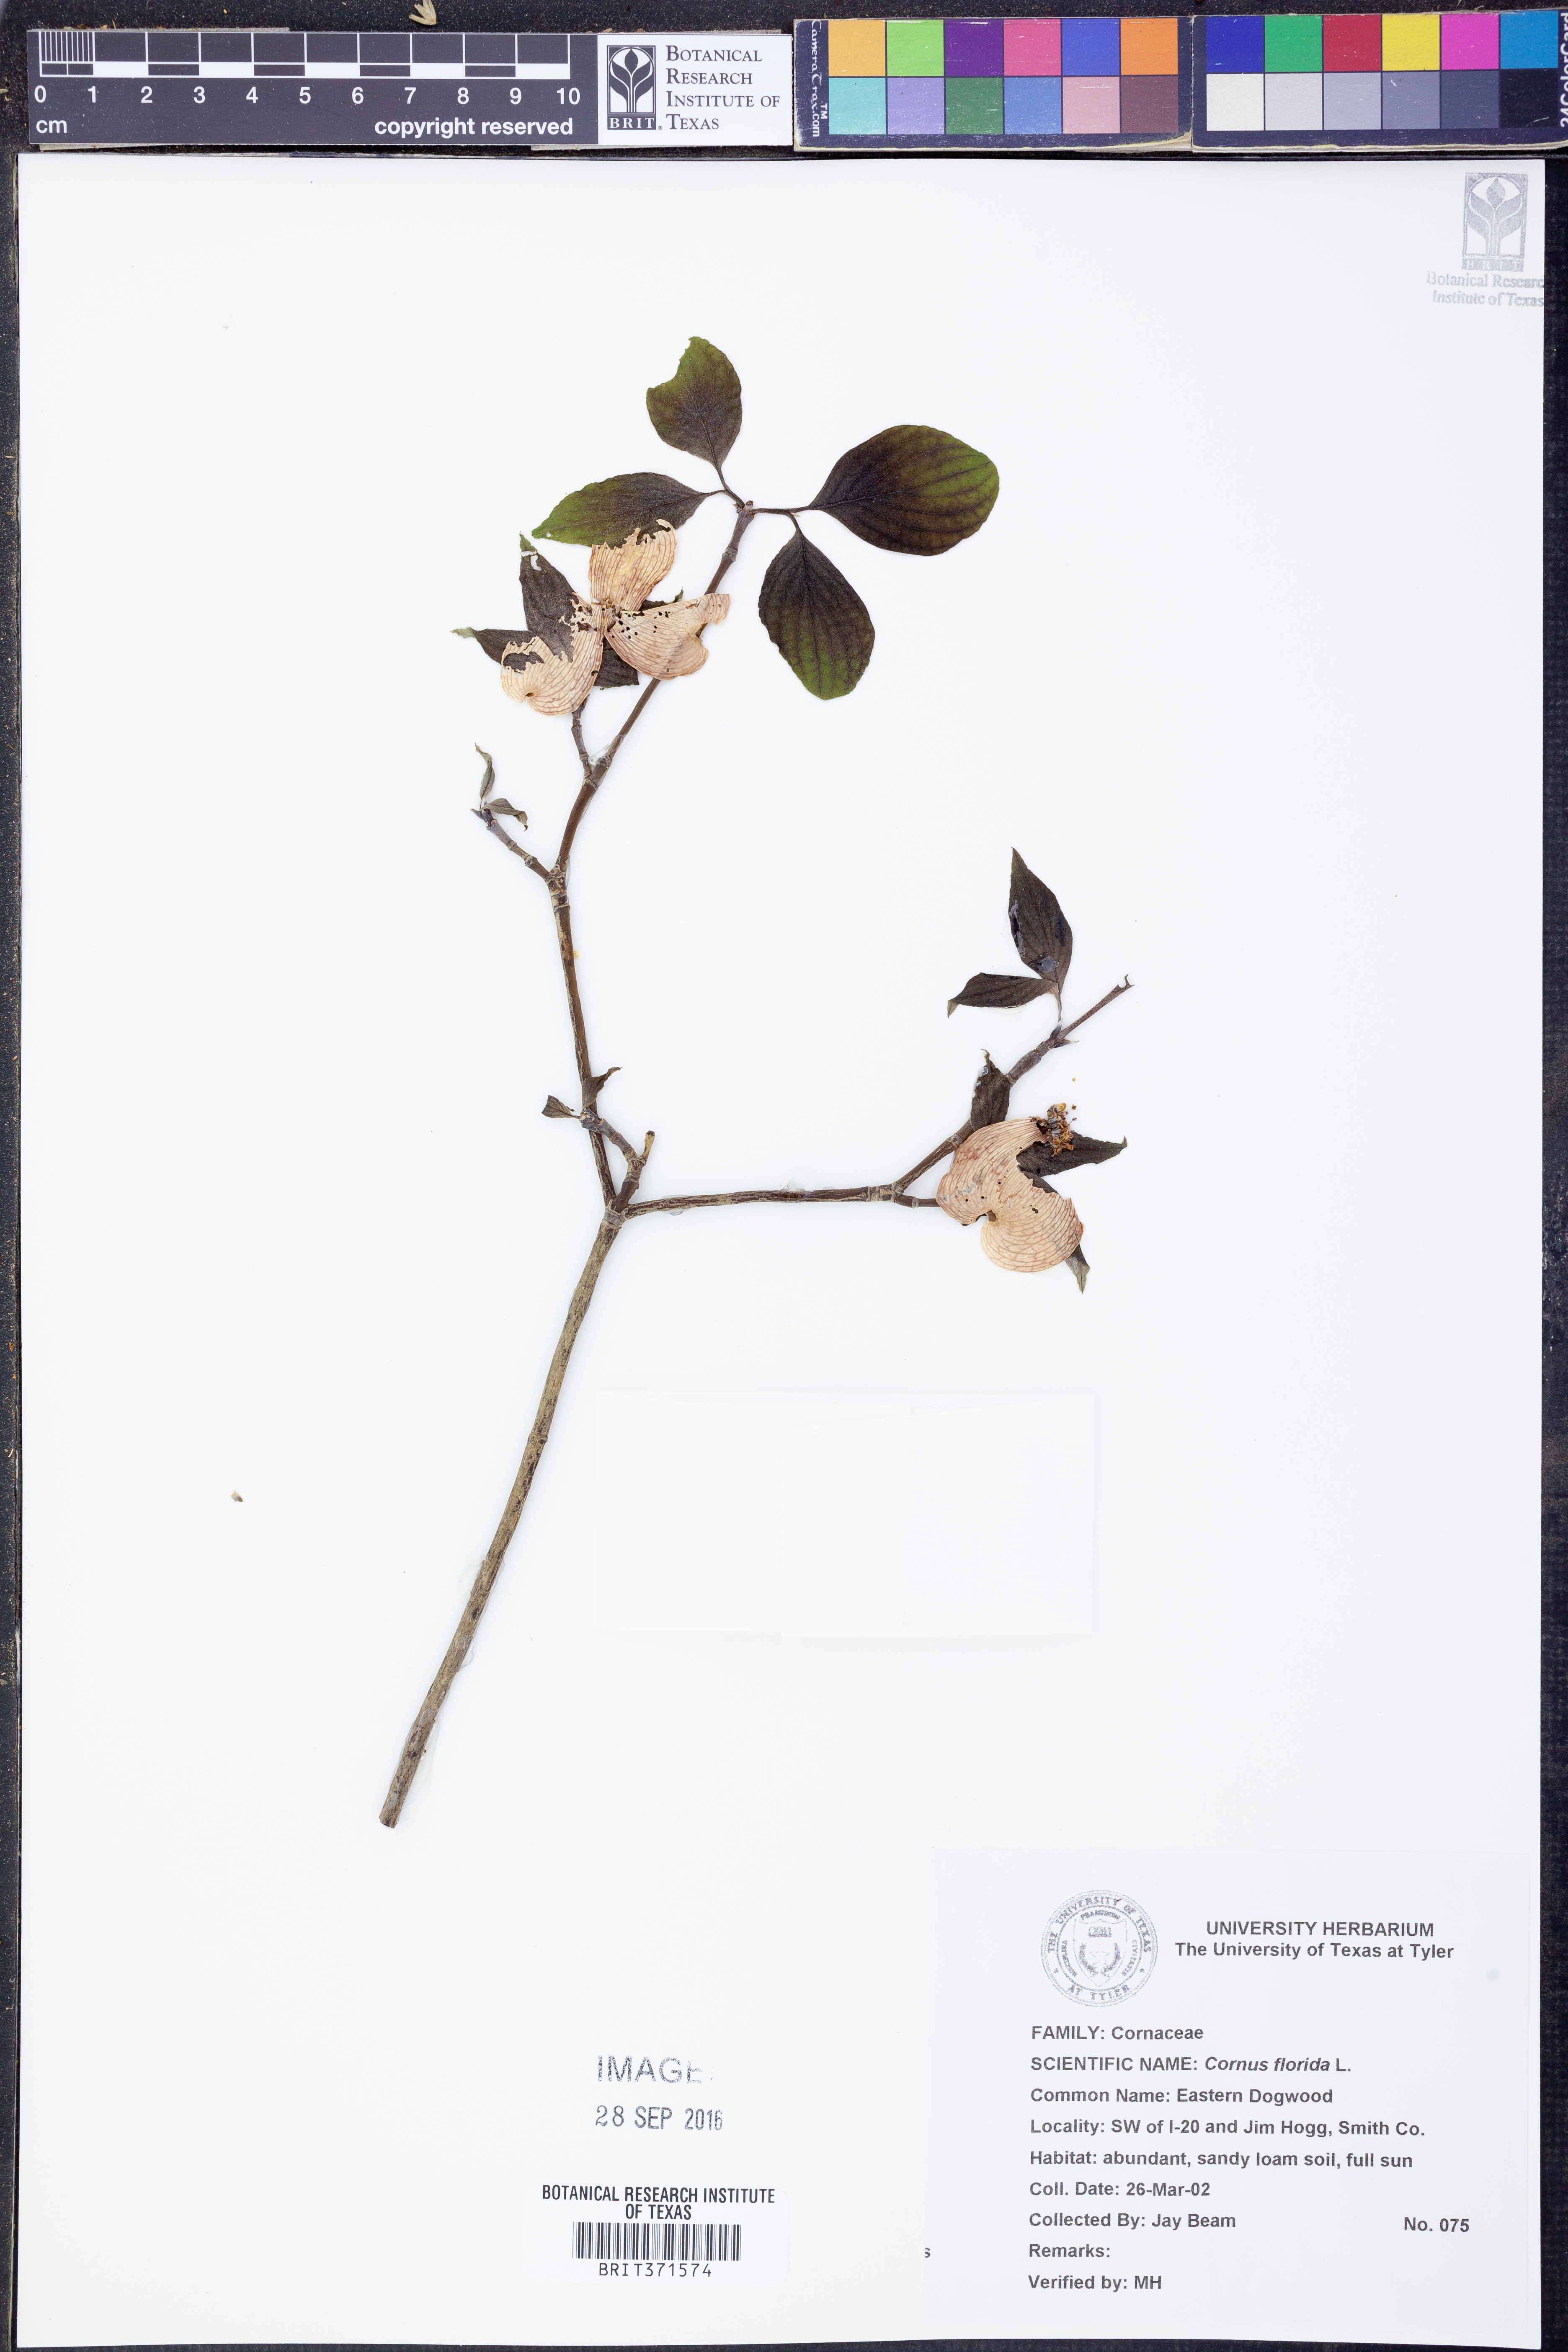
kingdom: Plantae
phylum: Tracheophyta
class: Magnoliopsida
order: Cornales
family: Cornaceae
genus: Cornus
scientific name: Cornus florida
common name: Flowering dogwood
